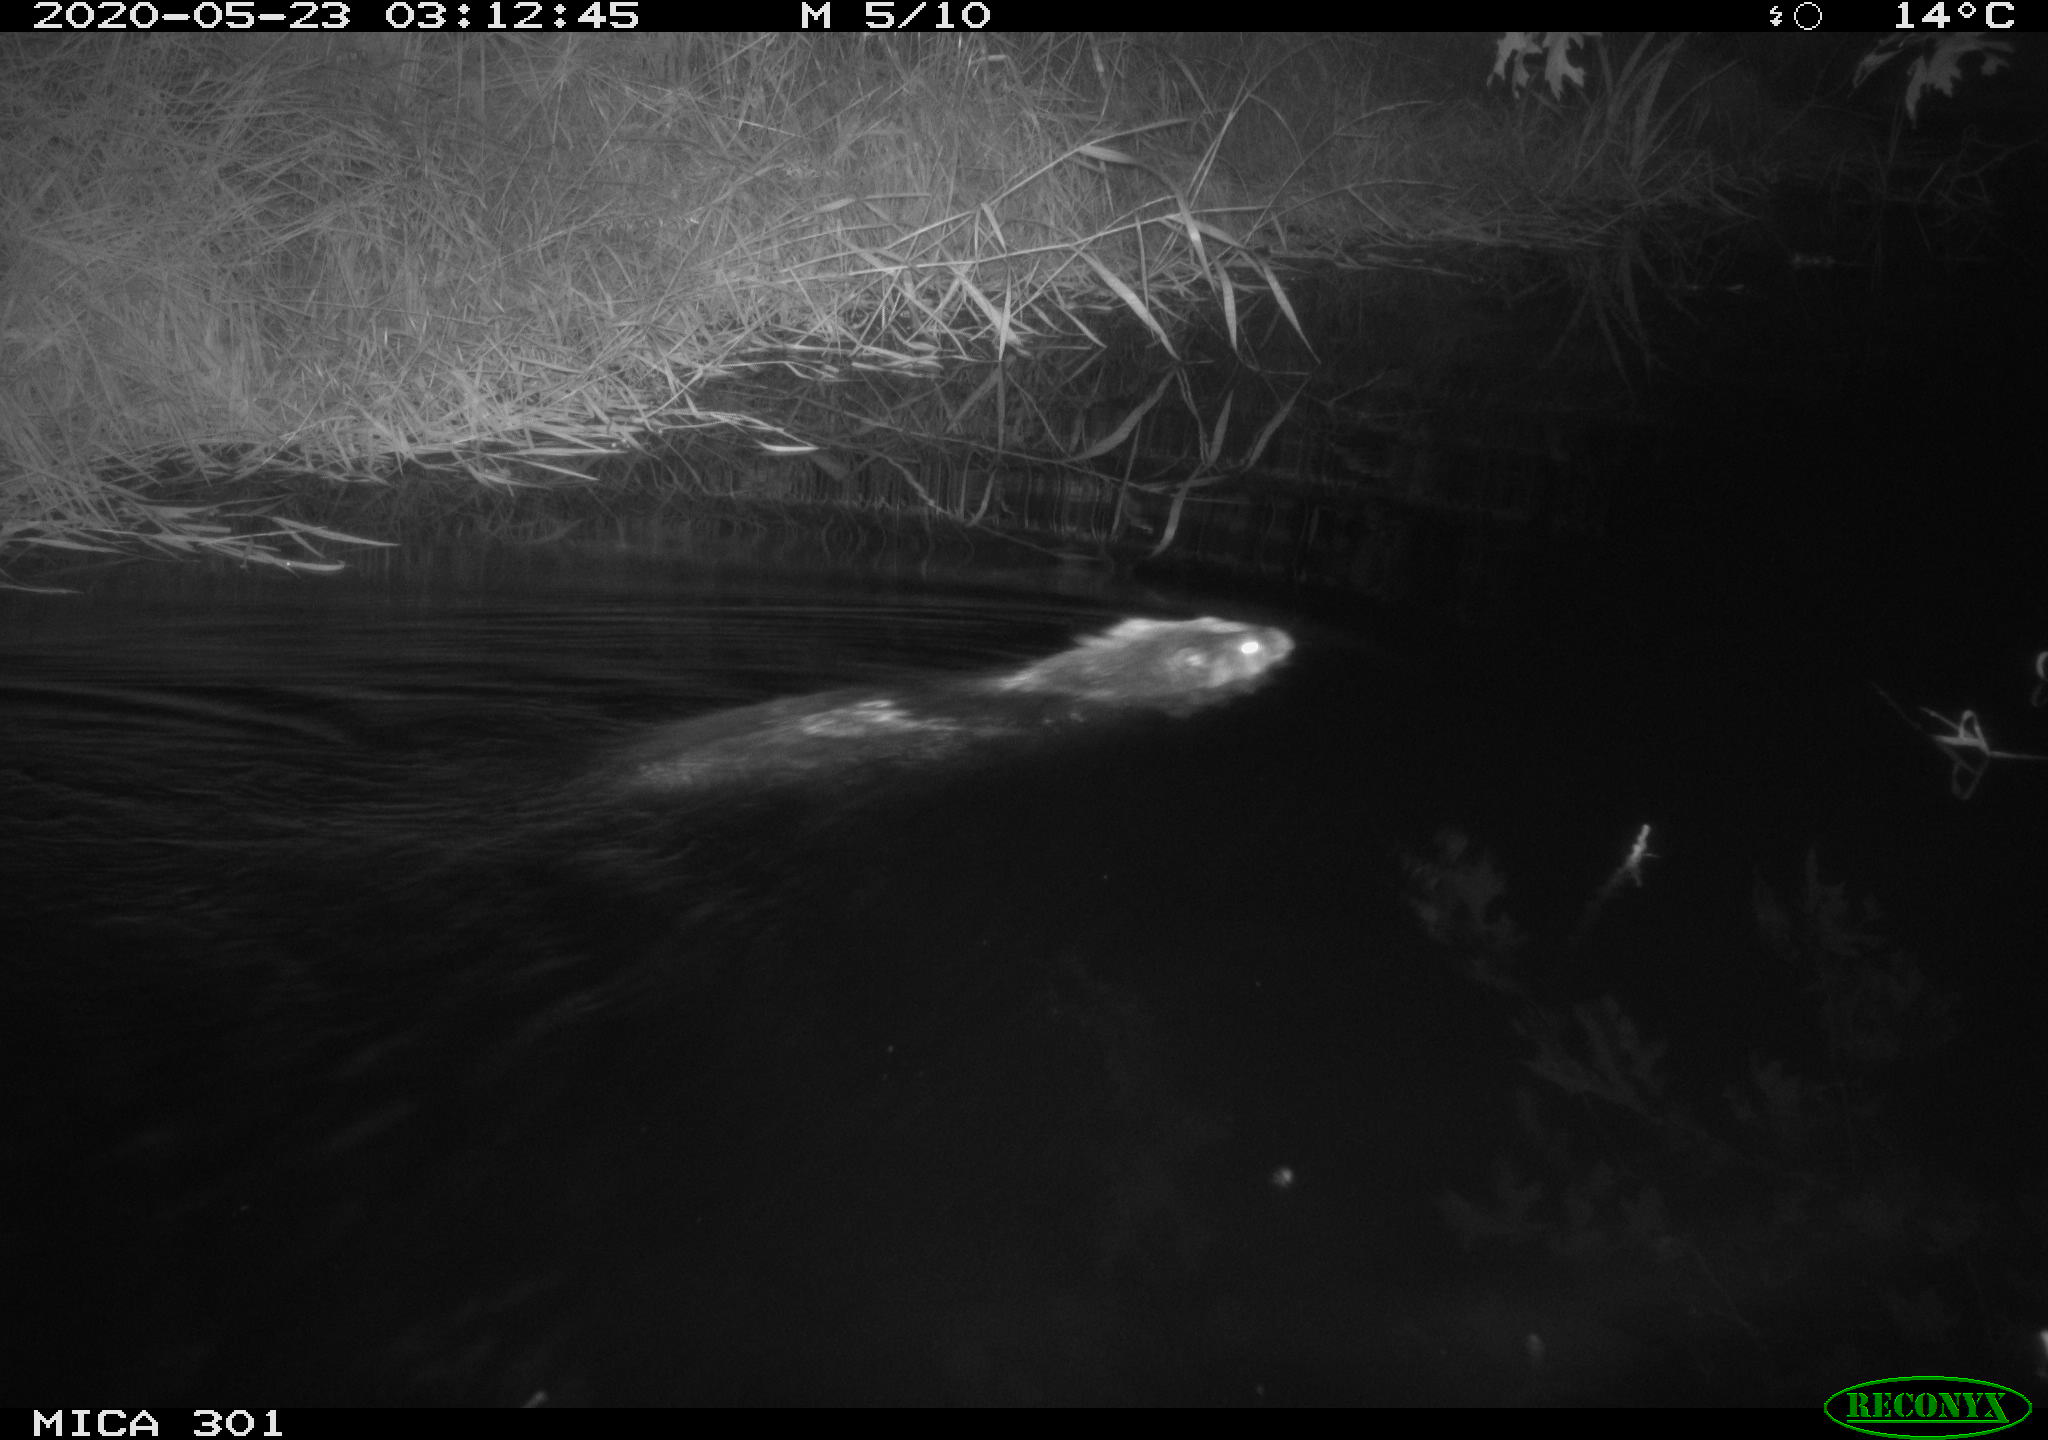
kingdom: Animalia
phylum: Chordata
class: Mammalia
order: Rodentia
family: Castoridae
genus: Castor
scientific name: Castor fiber
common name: Eurasian beaver
